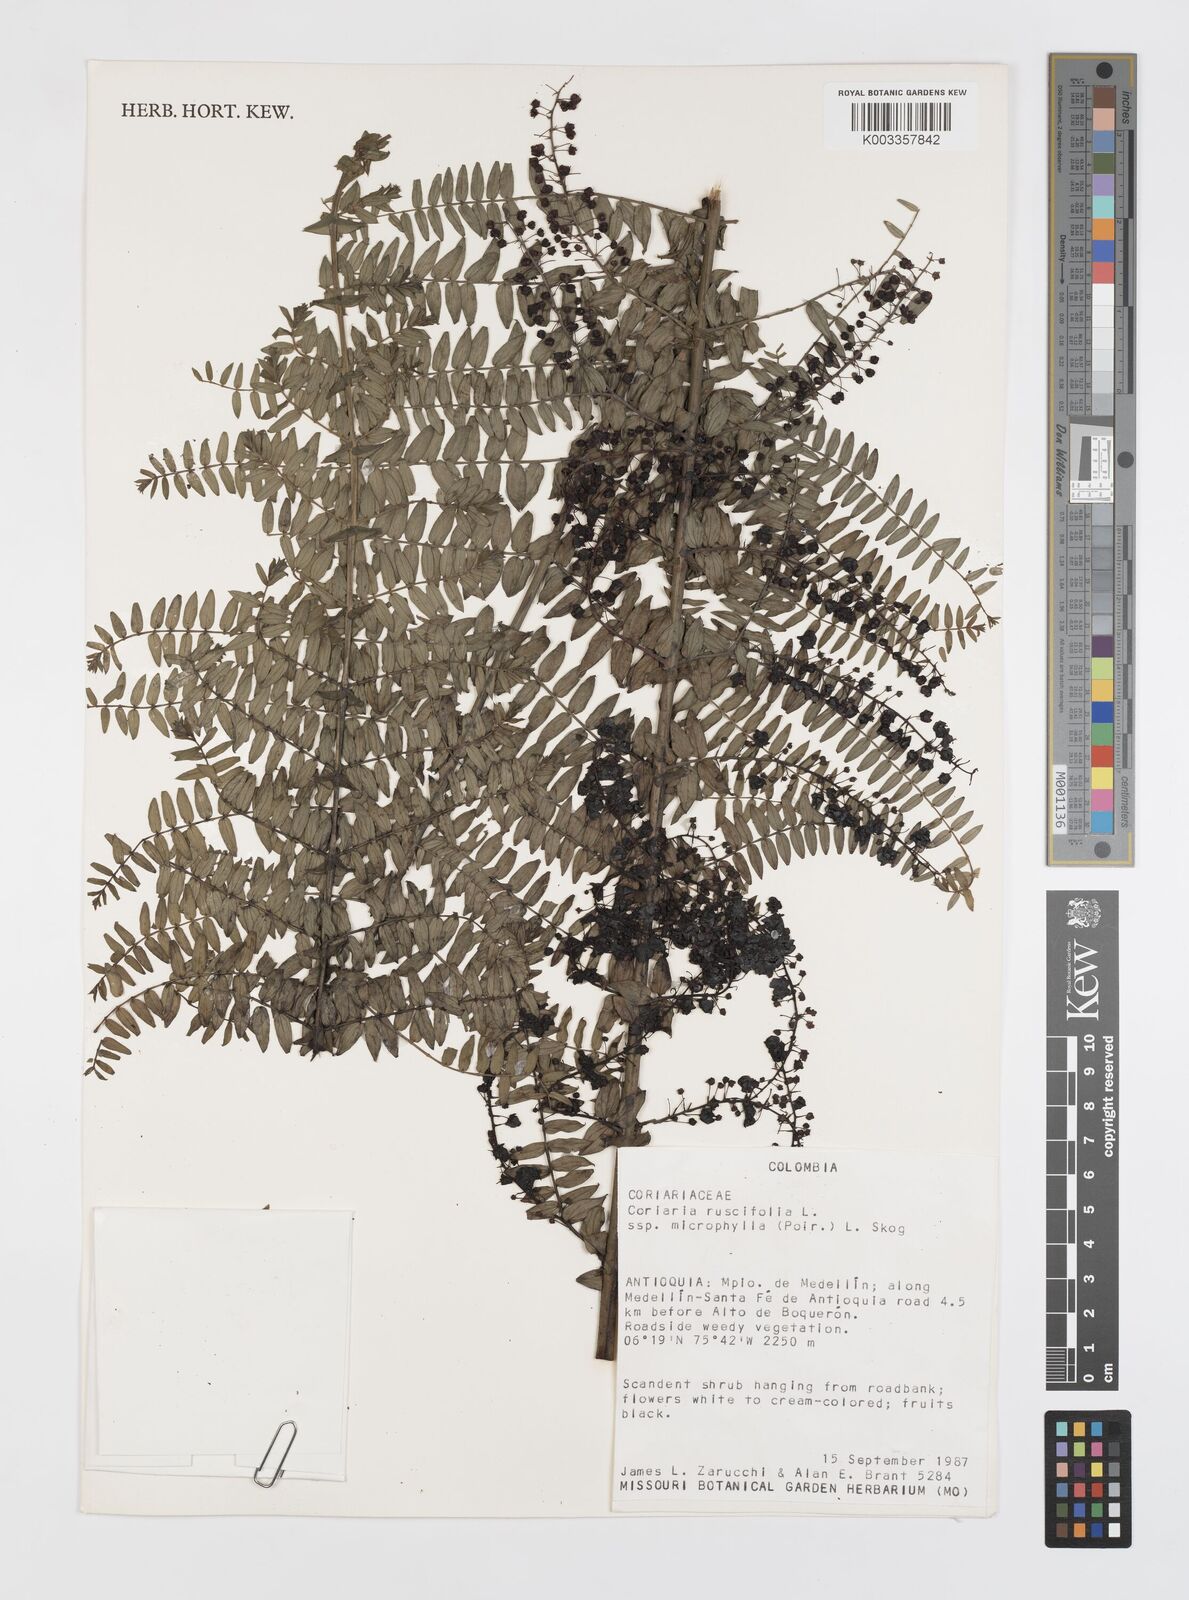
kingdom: Plantae
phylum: Tracheophyta
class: Magnoliopsida
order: Cucurbitales
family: Coriariaceae
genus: Coriaria
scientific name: Coriaria microphylla
